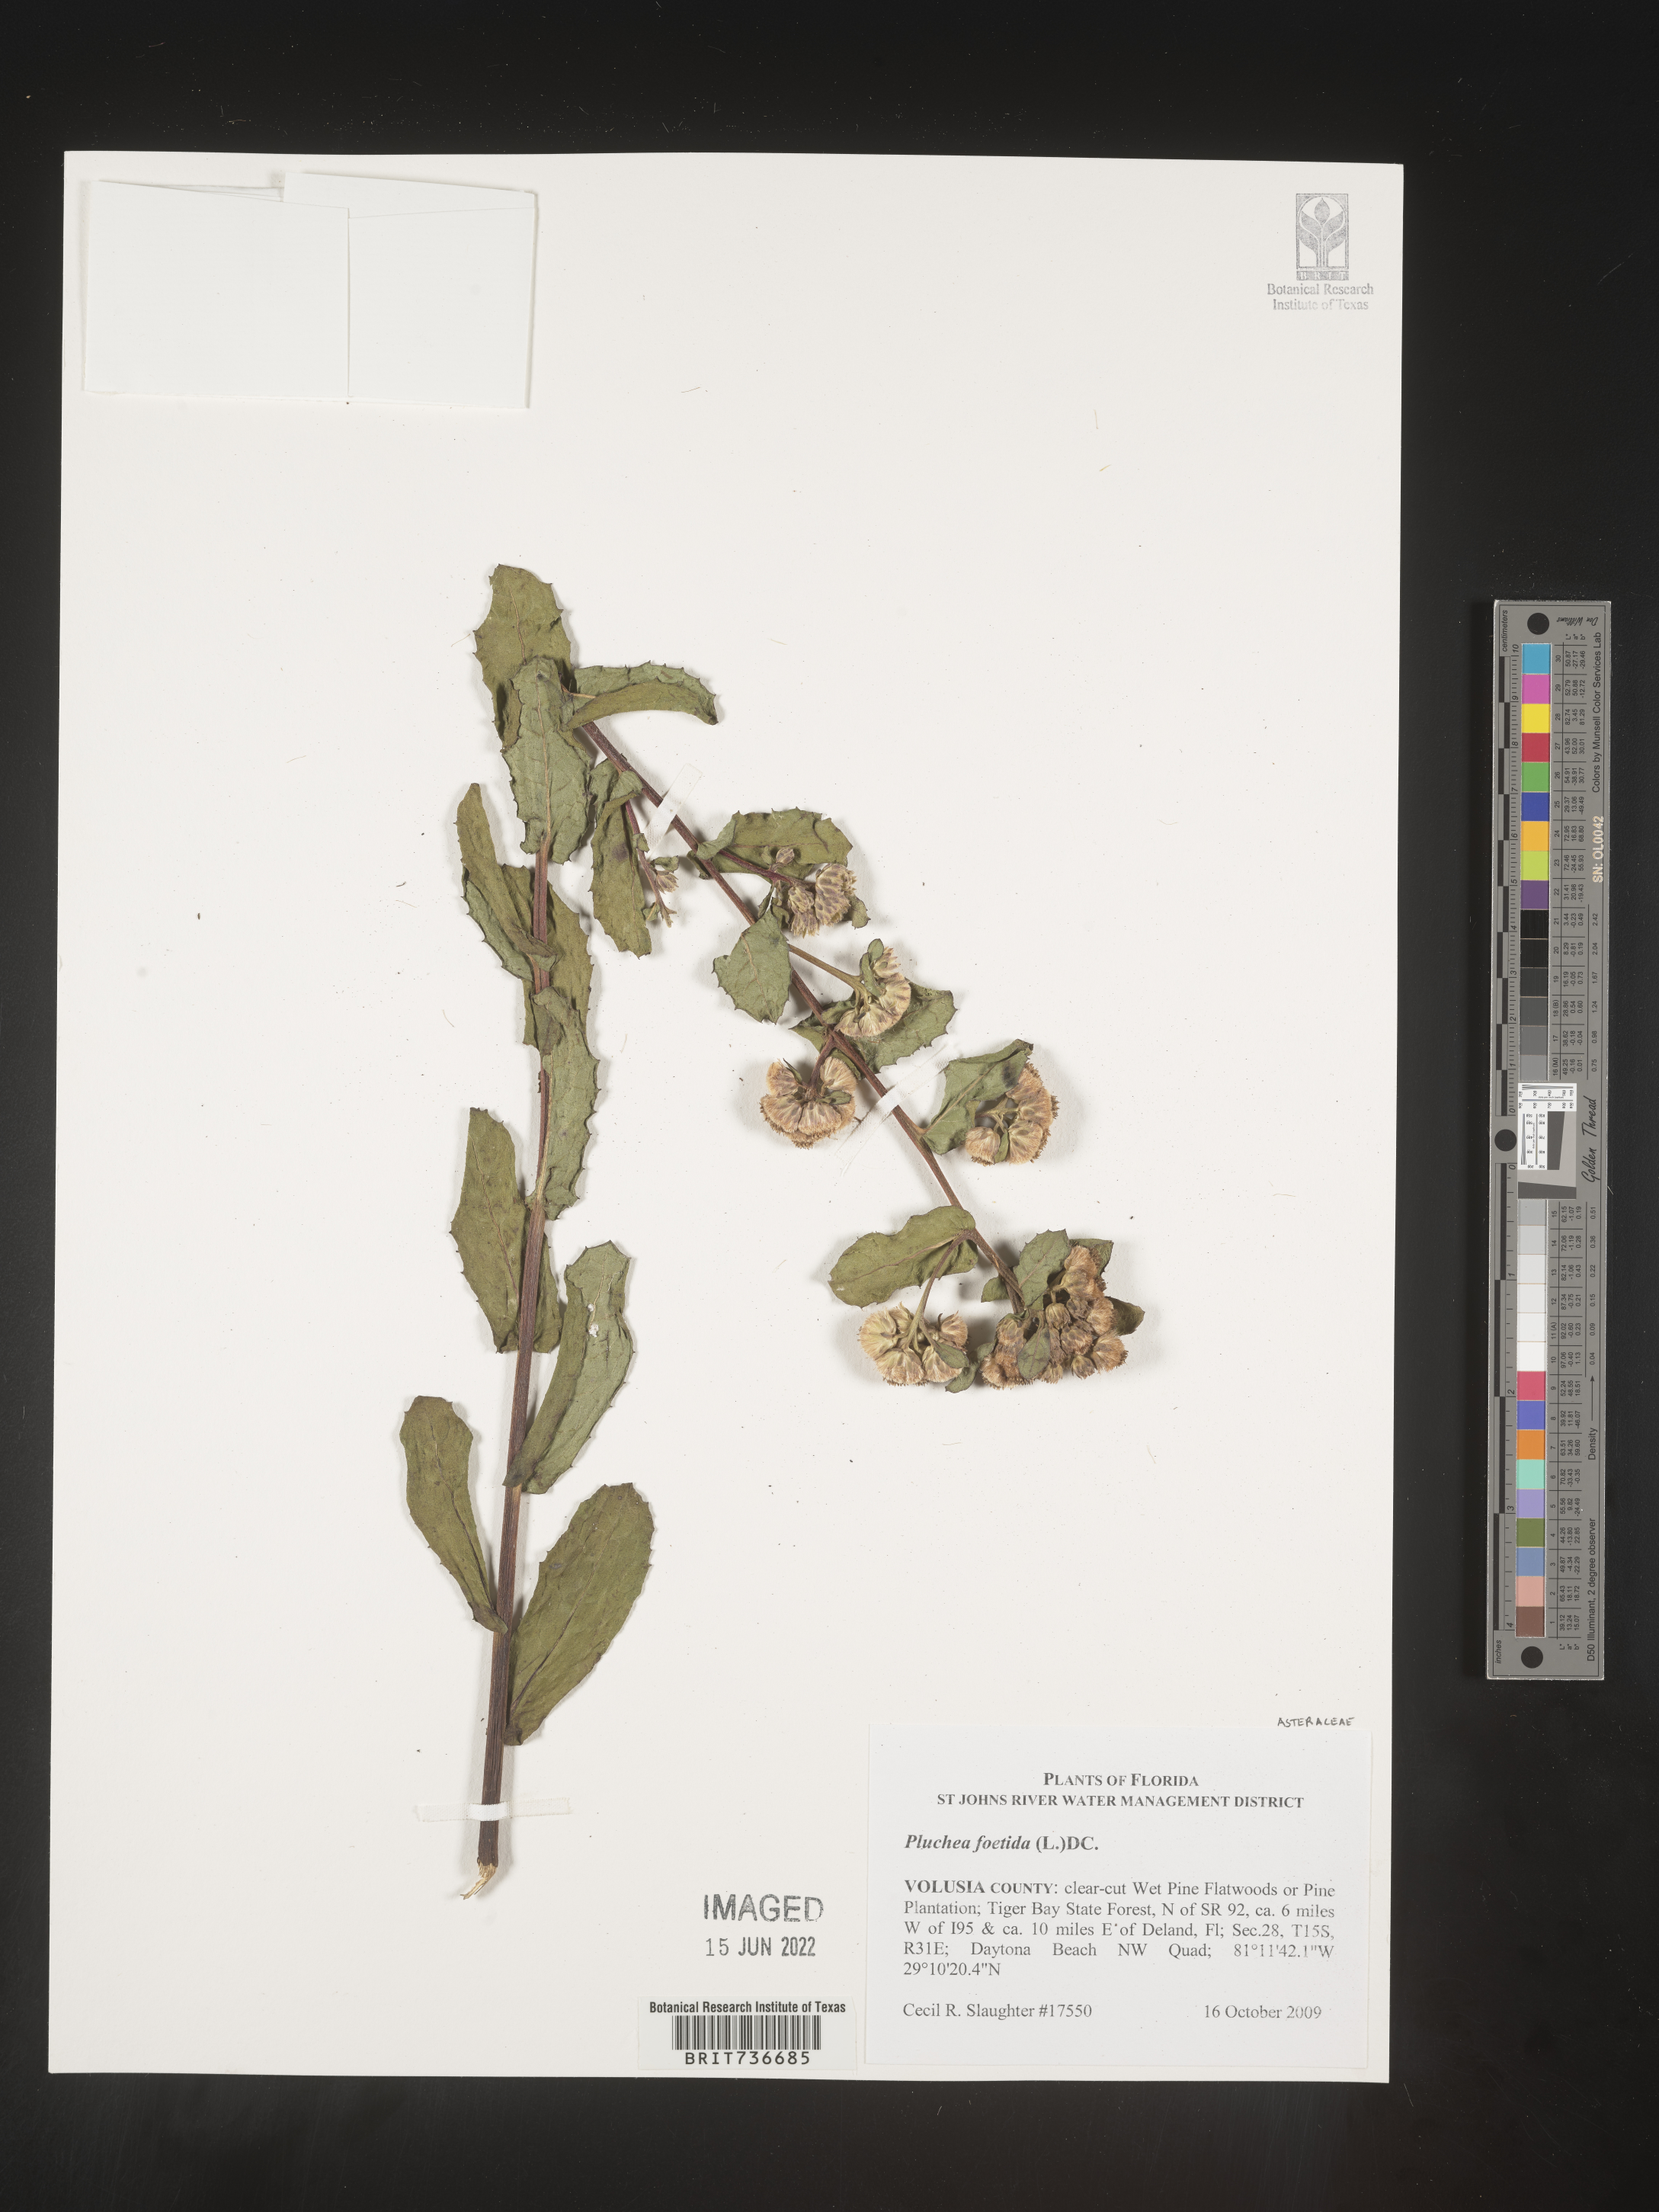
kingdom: Plantae
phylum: Tracheophyta
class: Magnoliopsida
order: Asterales
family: Asteraceae
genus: Pluchea
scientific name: Pluchea foetida
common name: Stinking camphorweed
